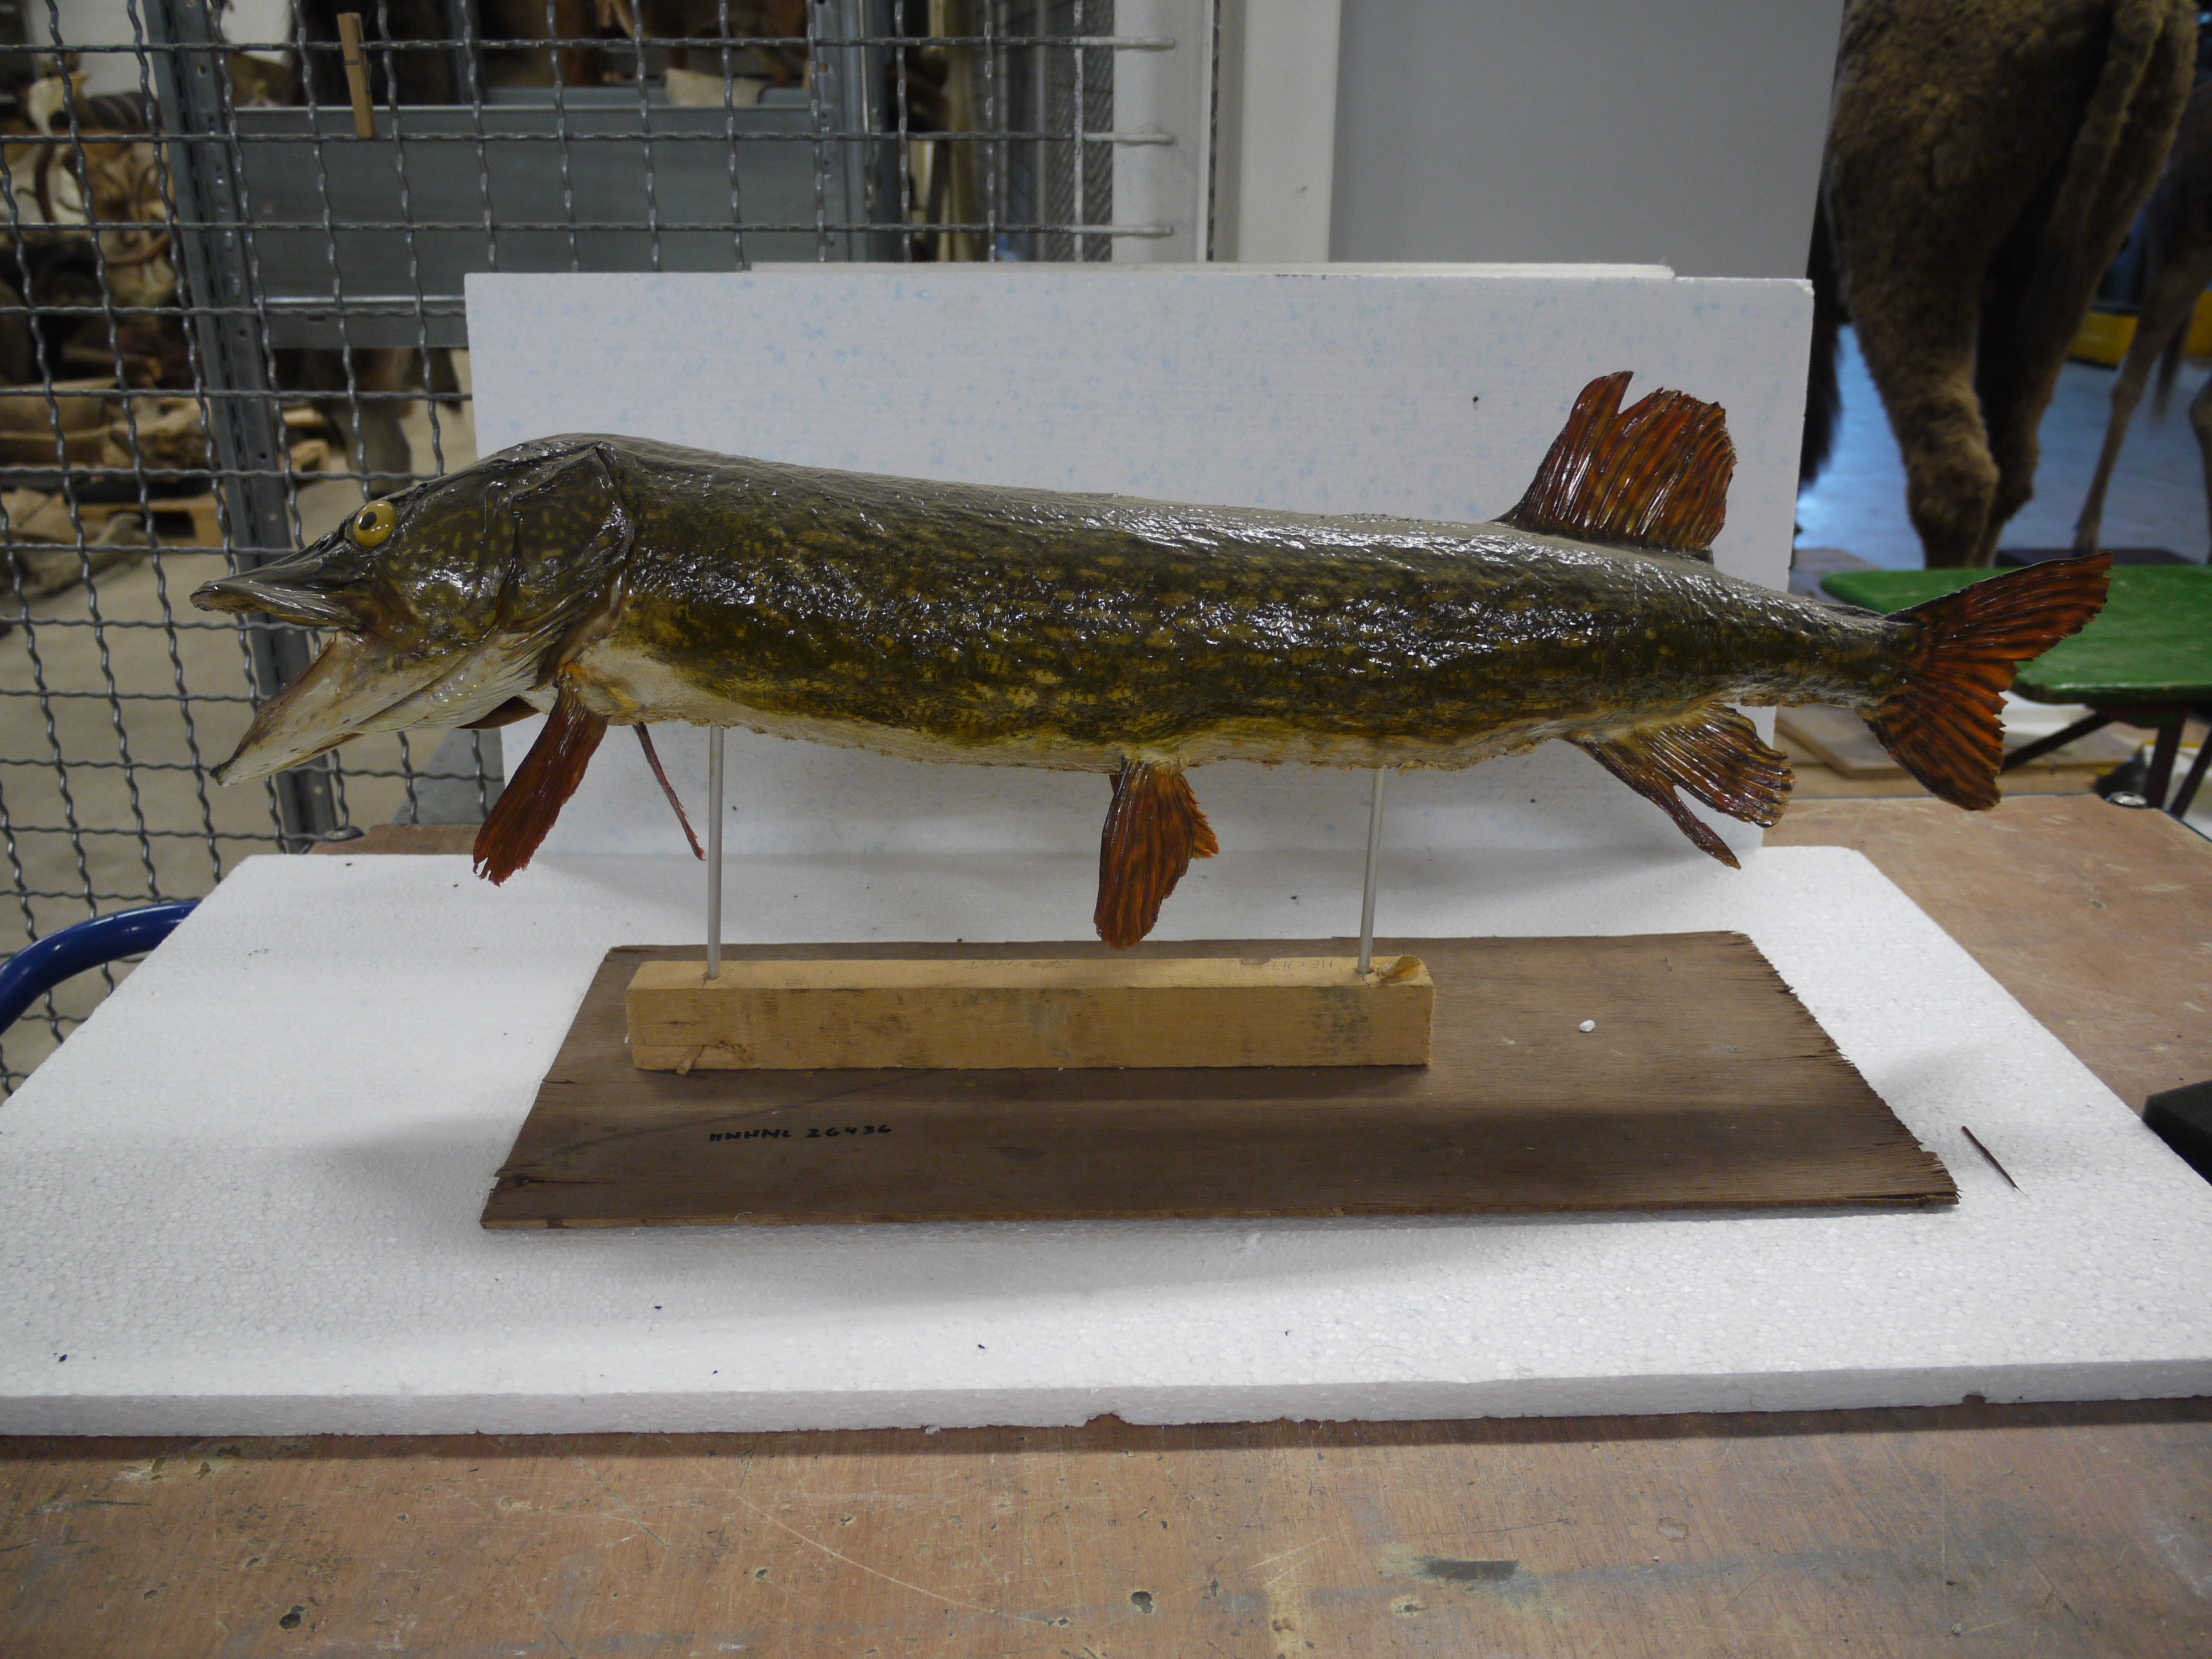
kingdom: Animalia
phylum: Chordata
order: Esociformes
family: Esocidae
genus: Esox
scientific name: Esox lucius
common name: Northern pike
